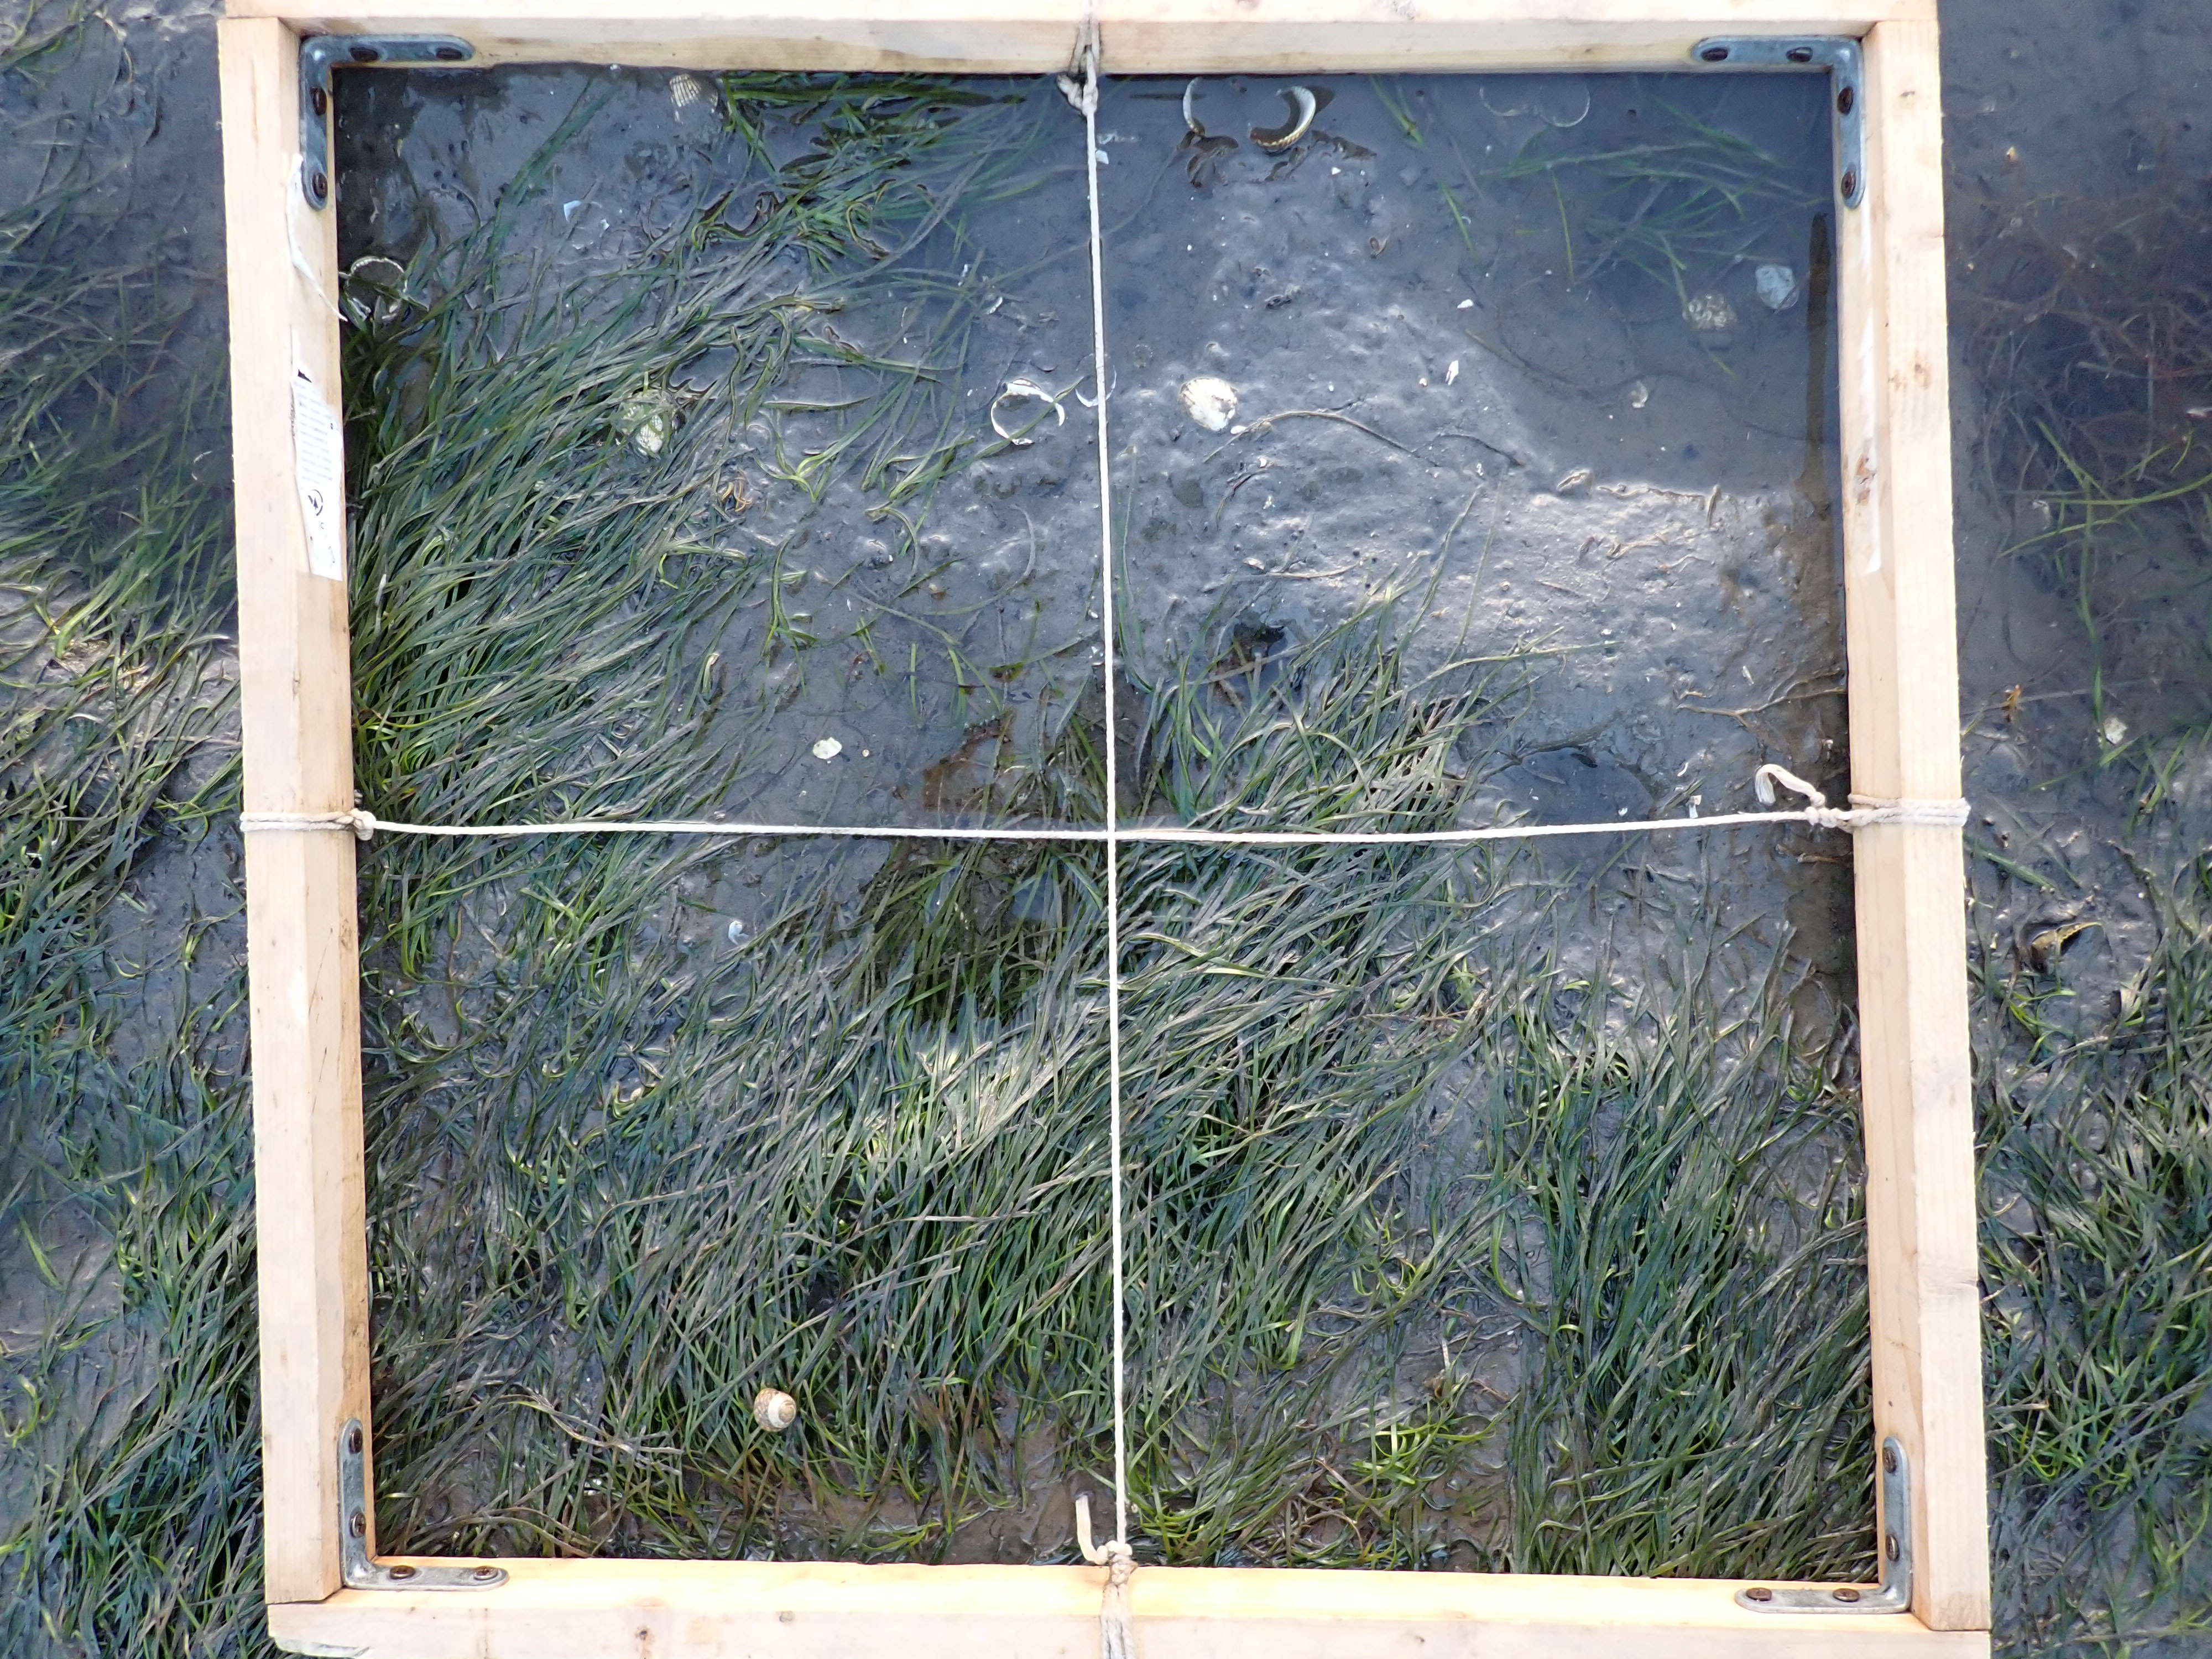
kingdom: Plantae
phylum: Tracheophyta
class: Liliopsida
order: Alismatales
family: Zosteraceae
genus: Zostera
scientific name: Zostera noltii
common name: Dwarf eelgrass
